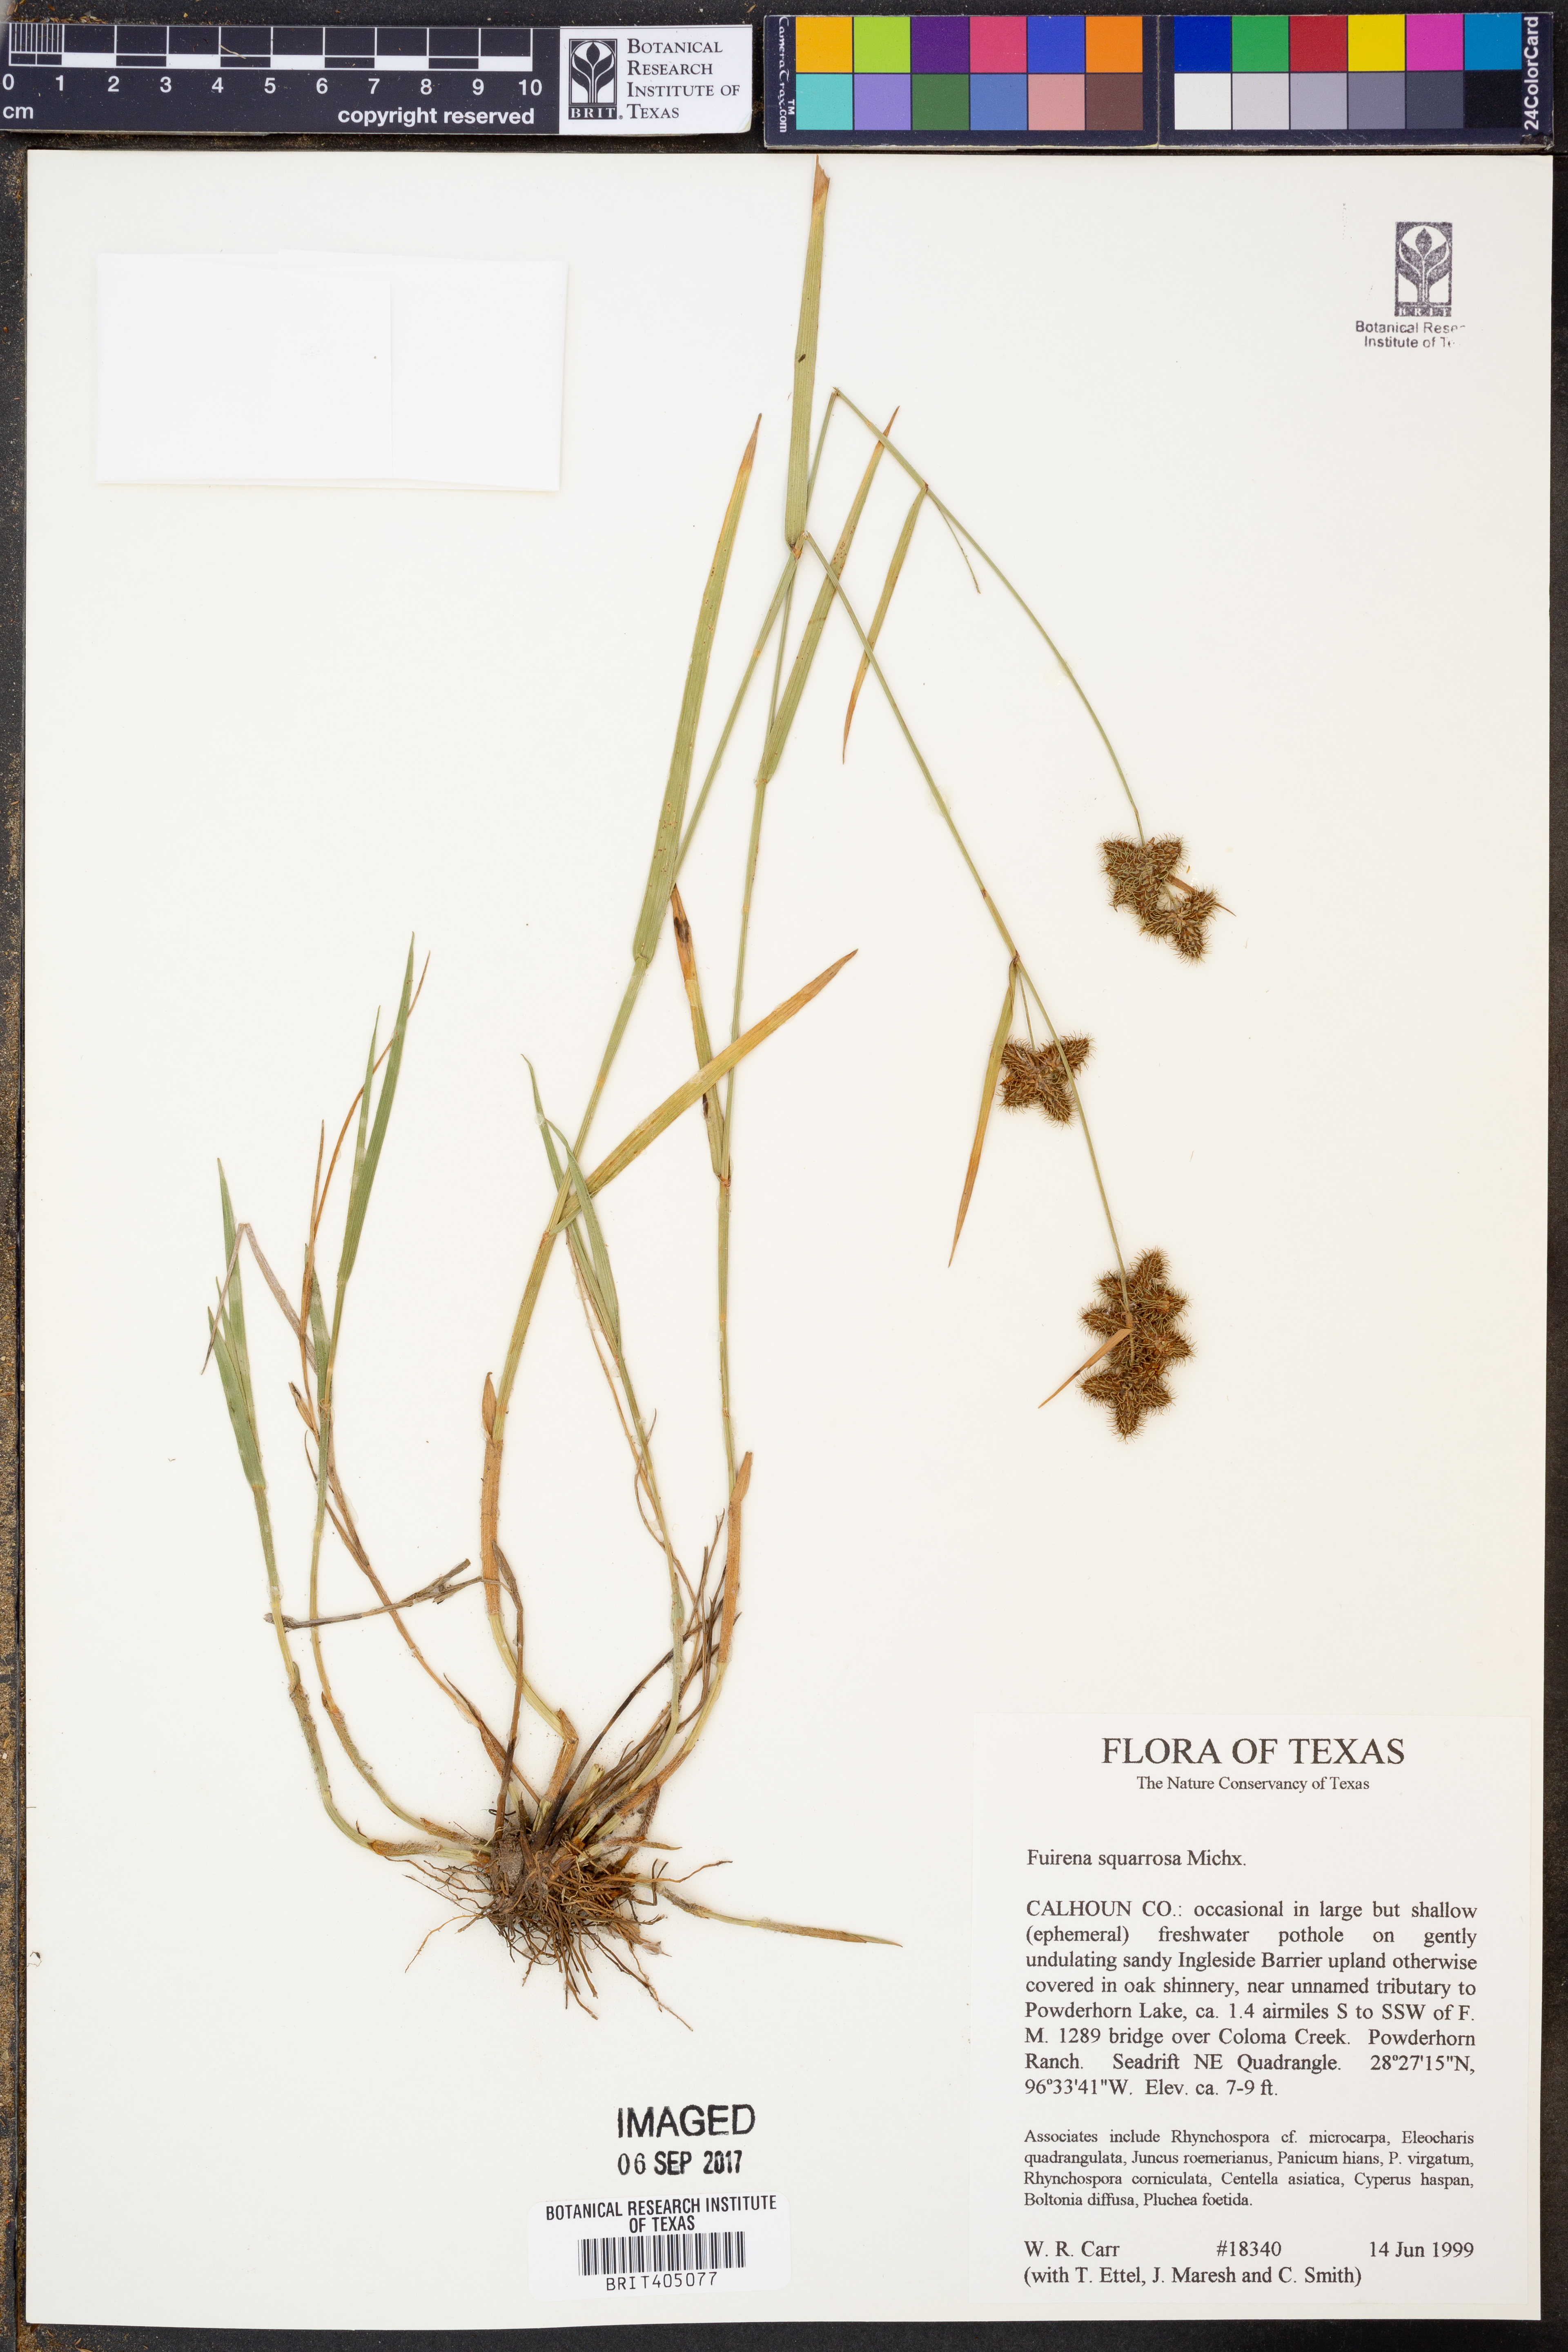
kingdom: Plantae
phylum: Tracheophyta
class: Liliopsida
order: Poales
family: Cyperaceae
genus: Fuirena
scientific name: Fuirena squarrosa
